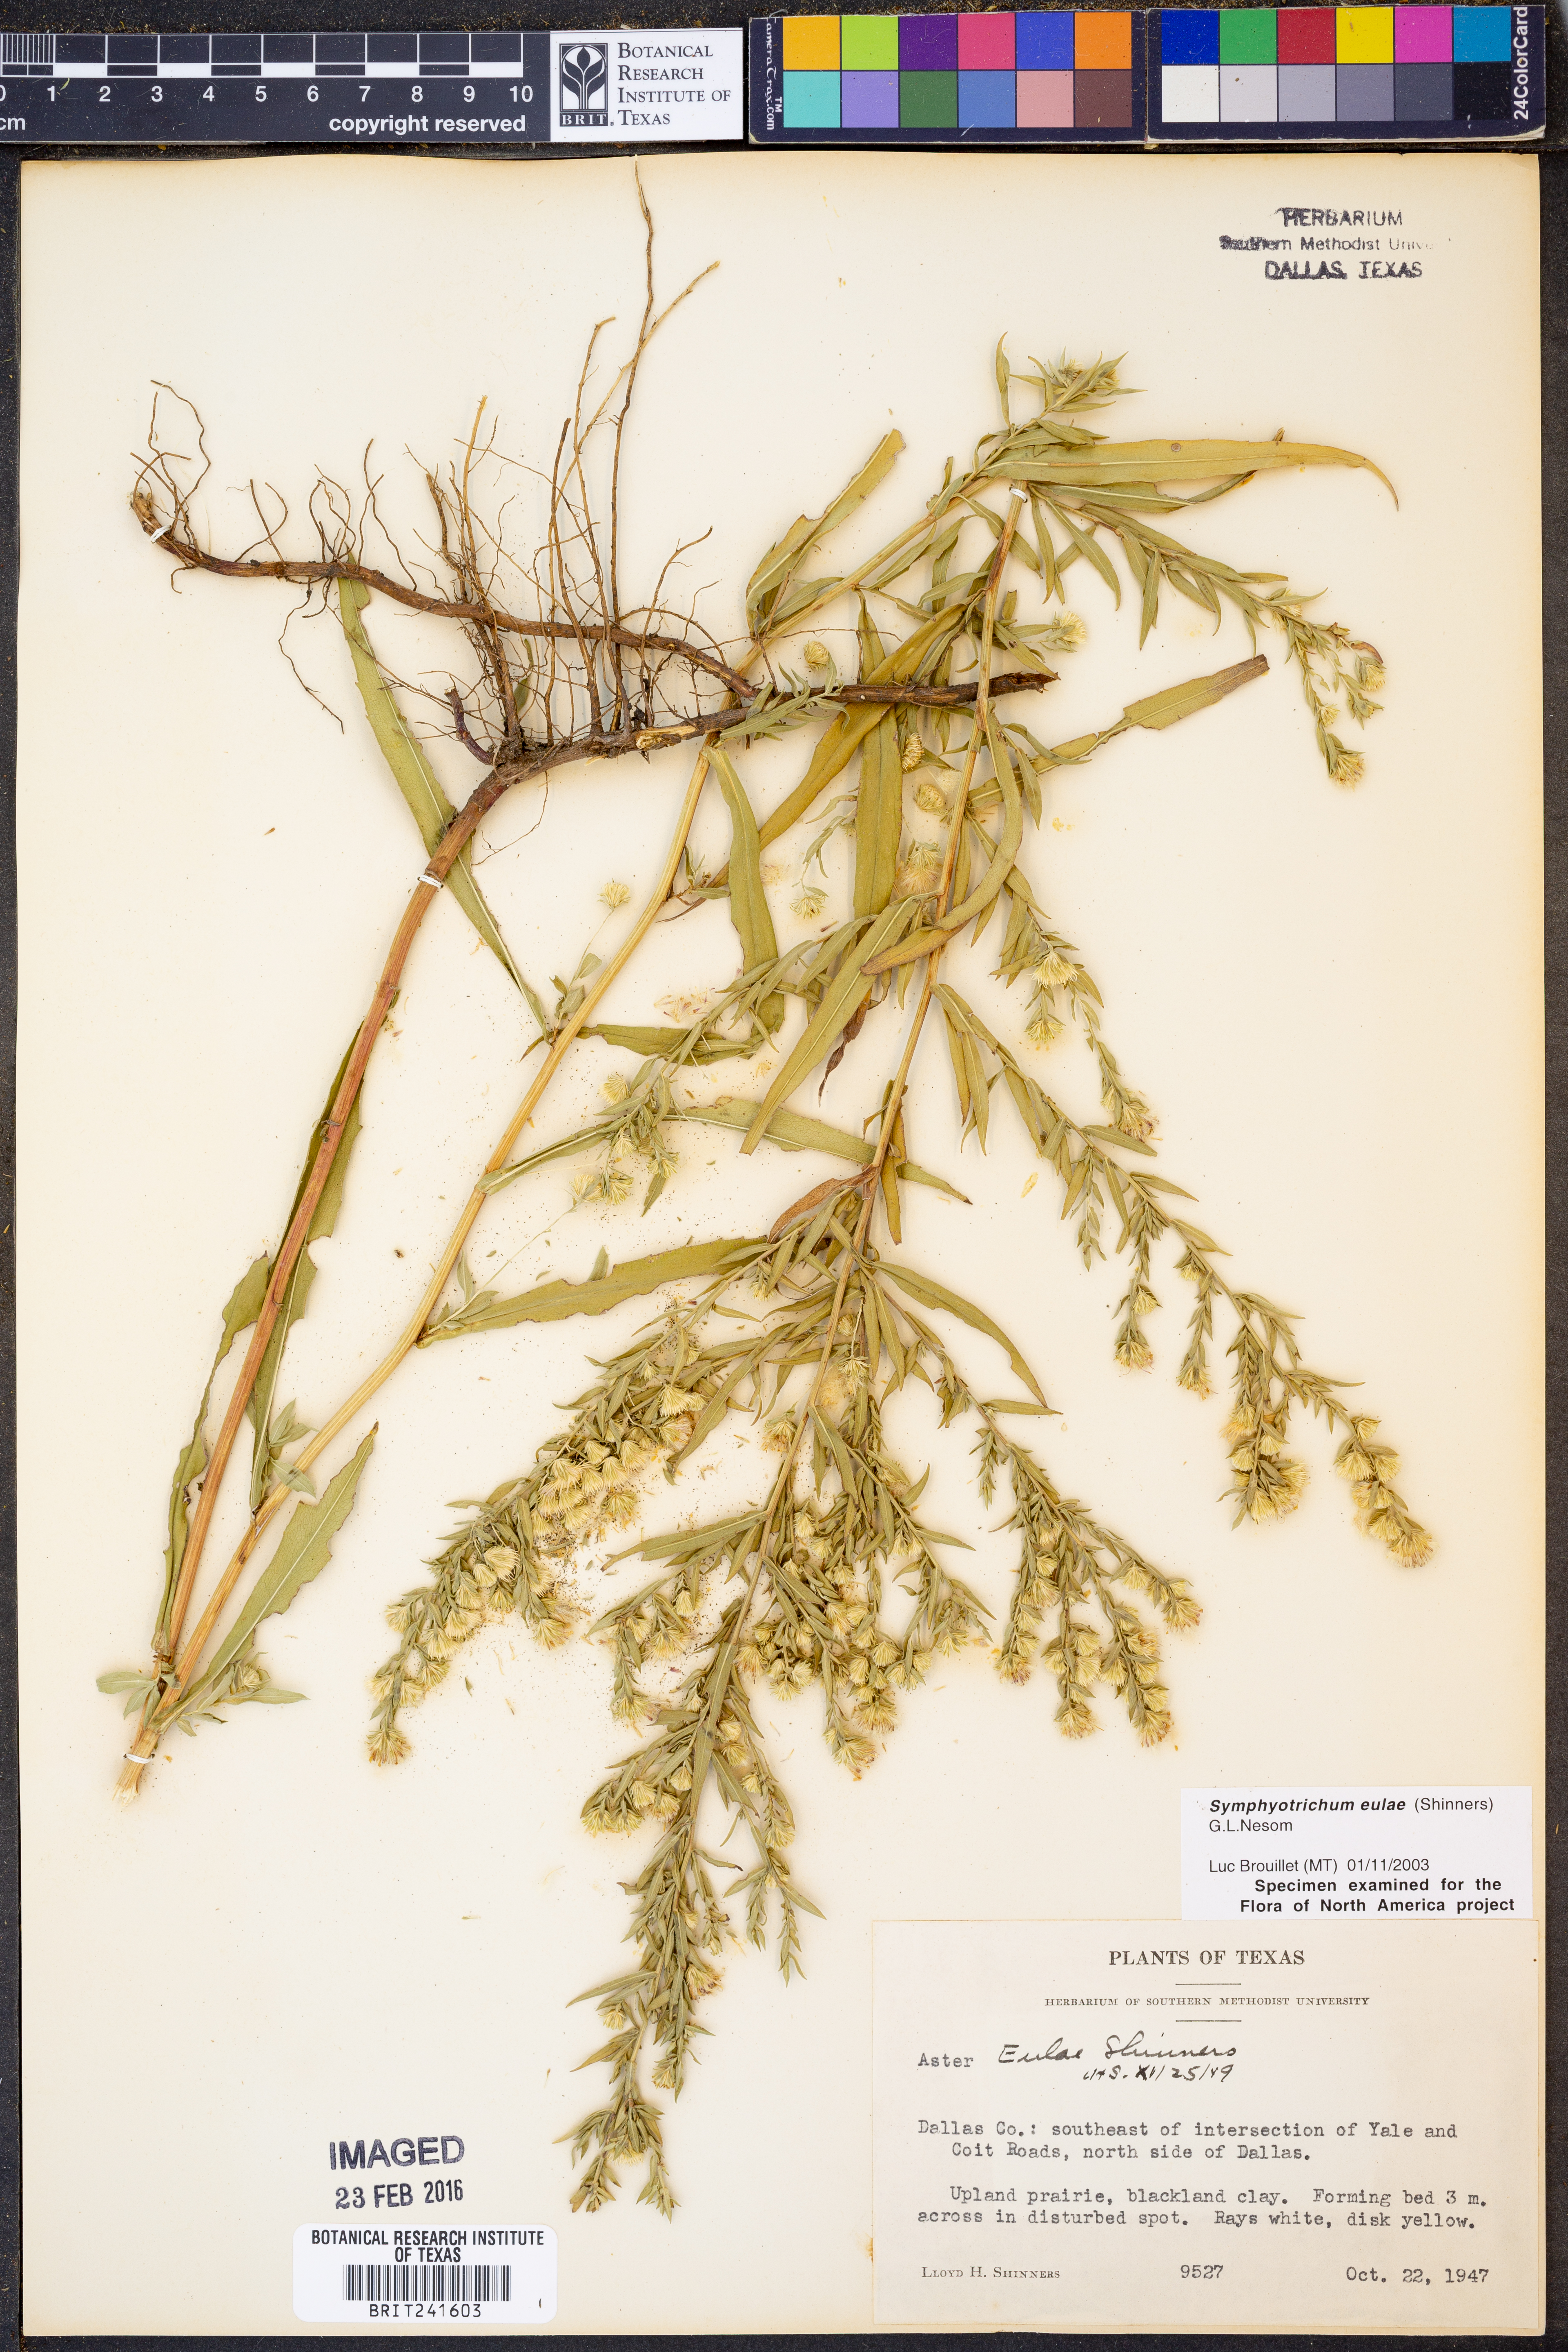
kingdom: Plantae
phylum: Tracheophyta
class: Magnoliopsida
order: Asterales
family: Asteraceae
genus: Symphyotrichum
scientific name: Symphyotrichum eulae
